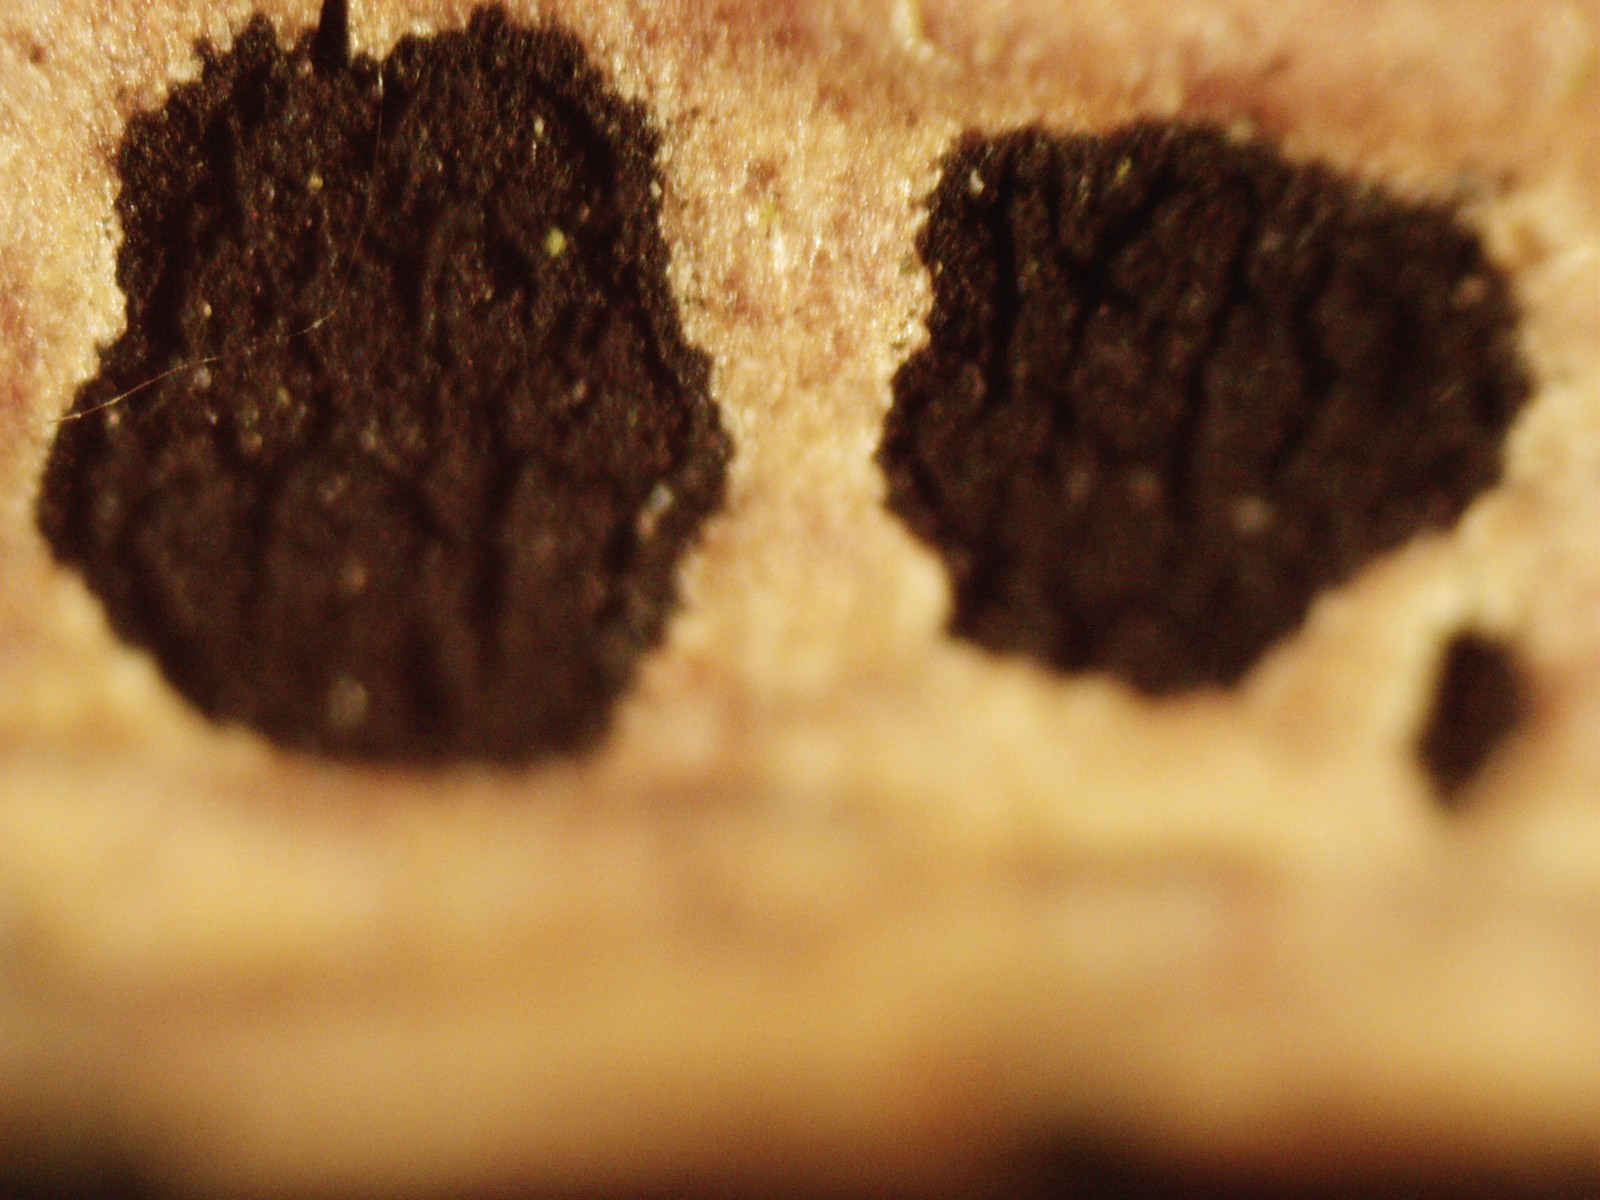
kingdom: Fungi
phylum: Ascomycota
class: Leotiomycetes
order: Helotiales
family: Mollisiaceae
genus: Trimmatostroma
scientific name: Trimmatostroma betulinum
